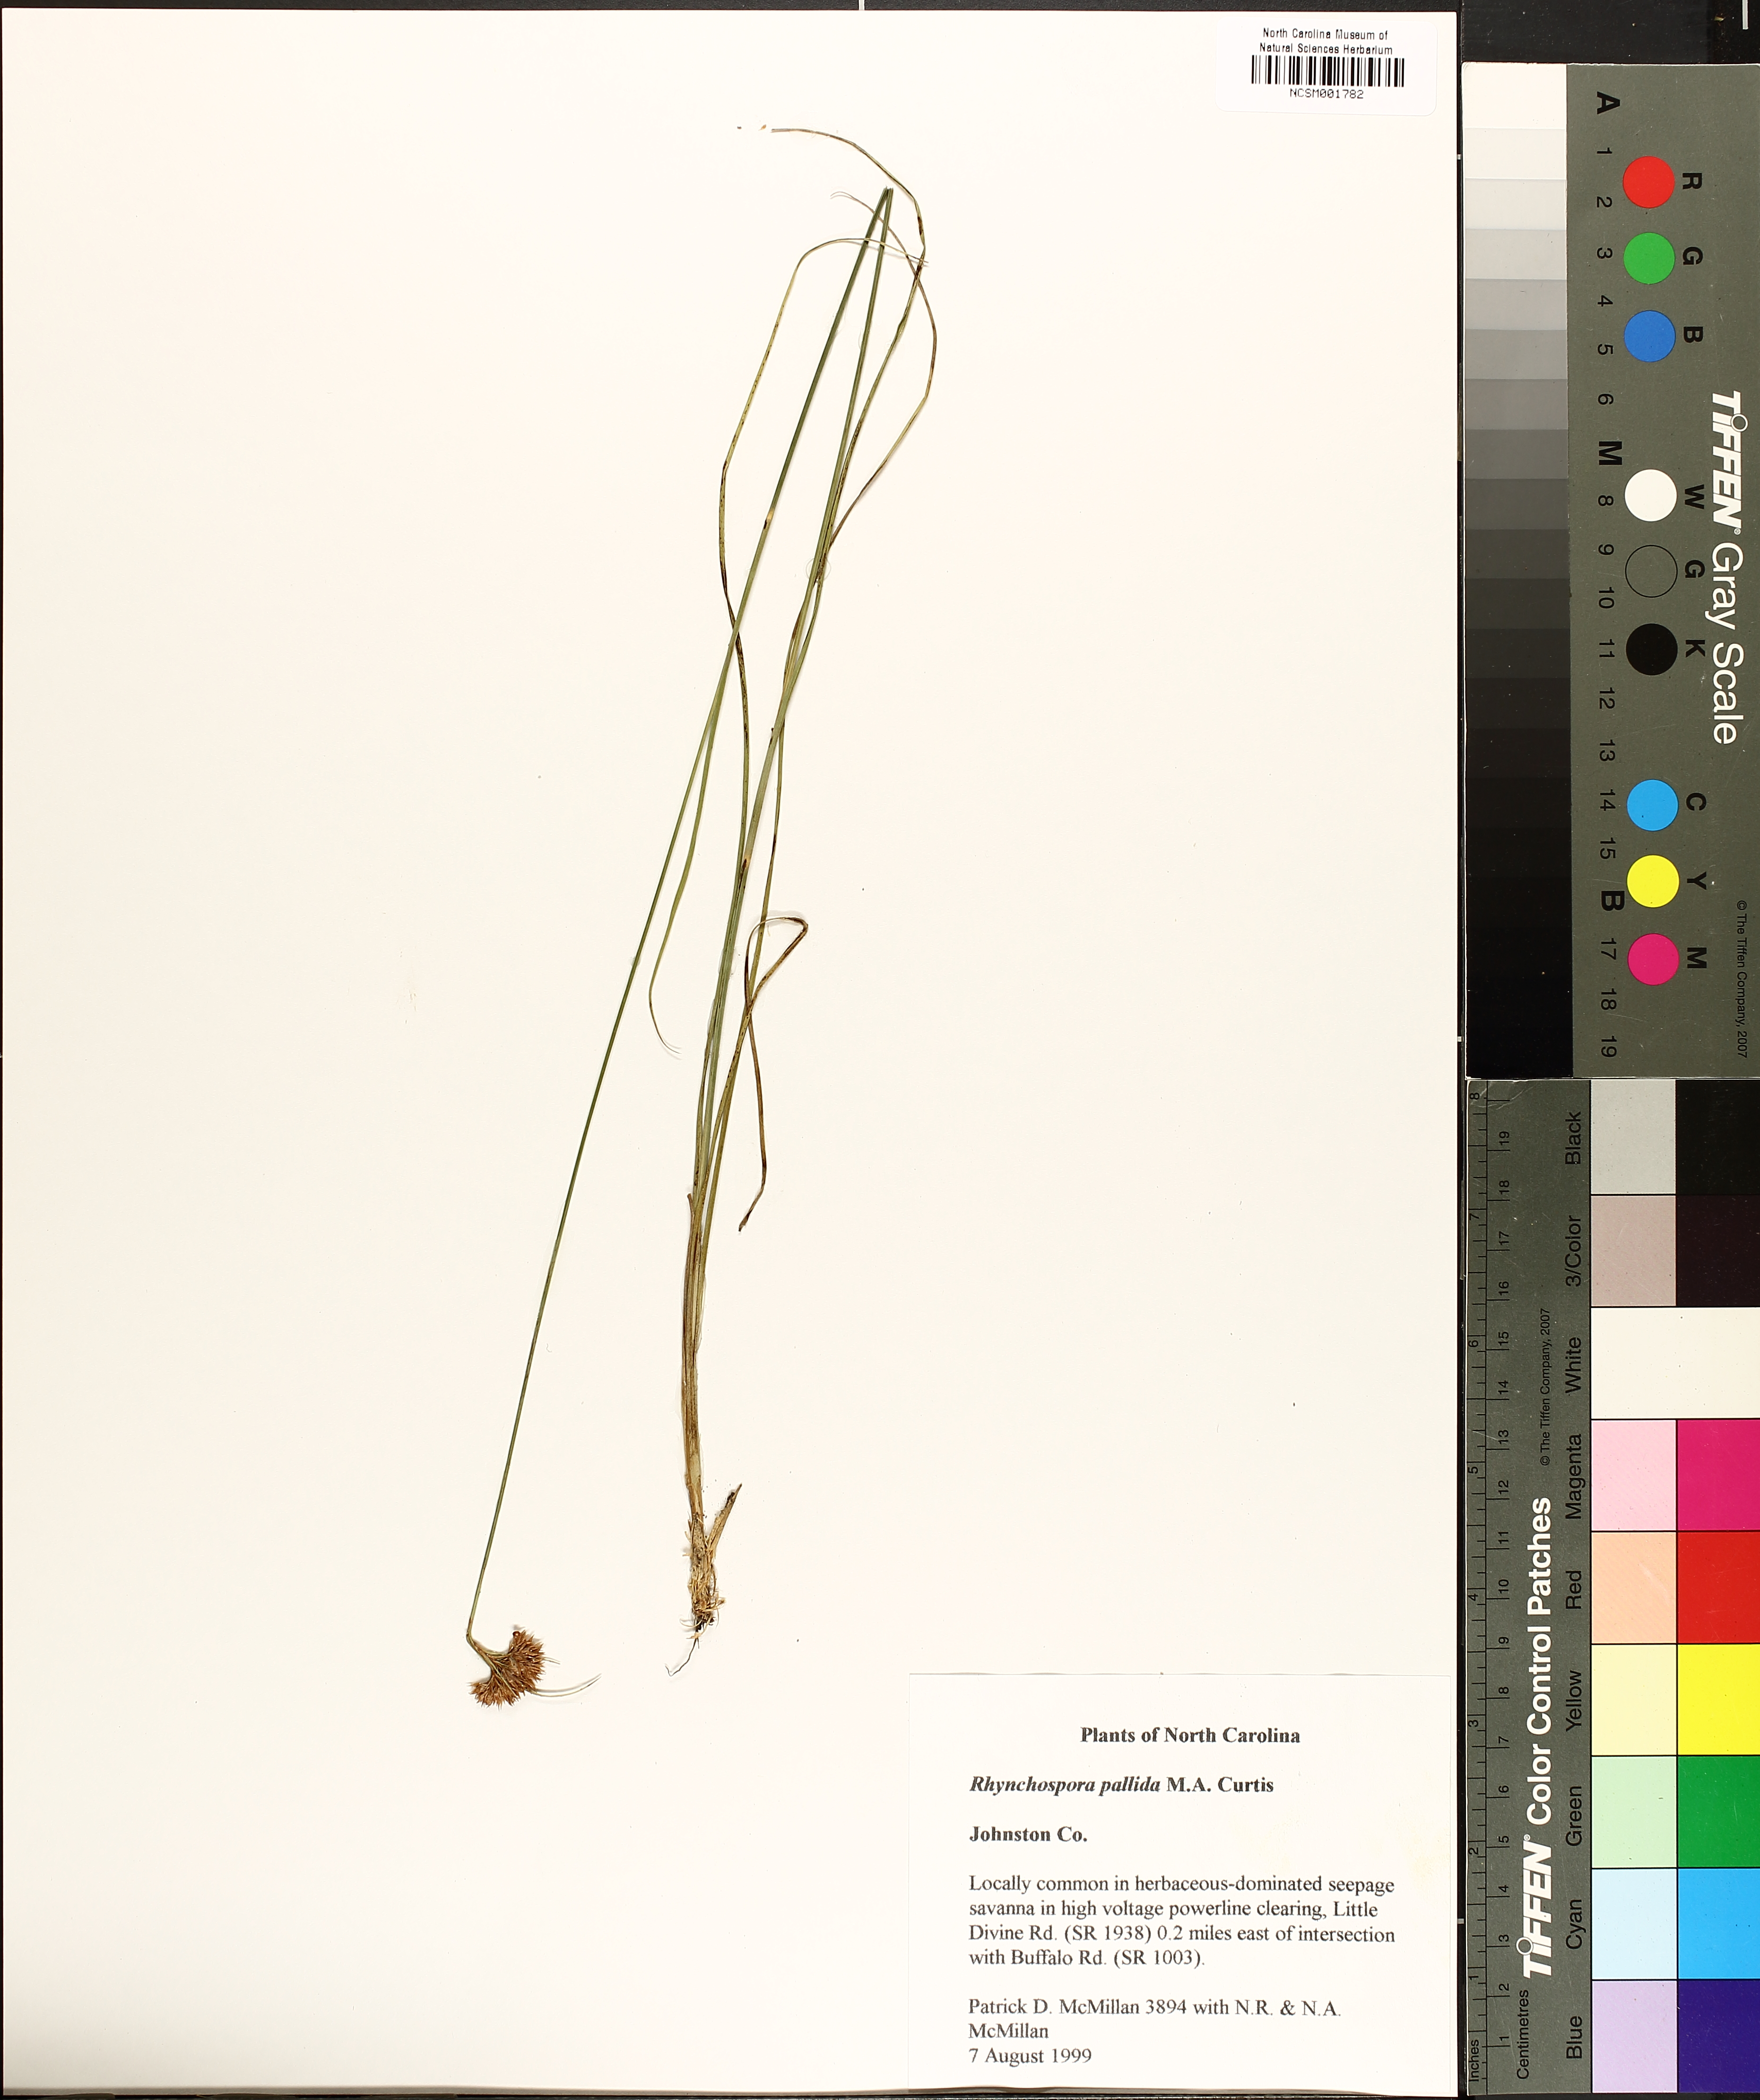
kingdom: Plantae
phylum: Tracheophyta
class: Liliopsida
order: Poales
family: Cyperaceae
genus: Rhynchospora
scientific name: Rhynchospora pallida
